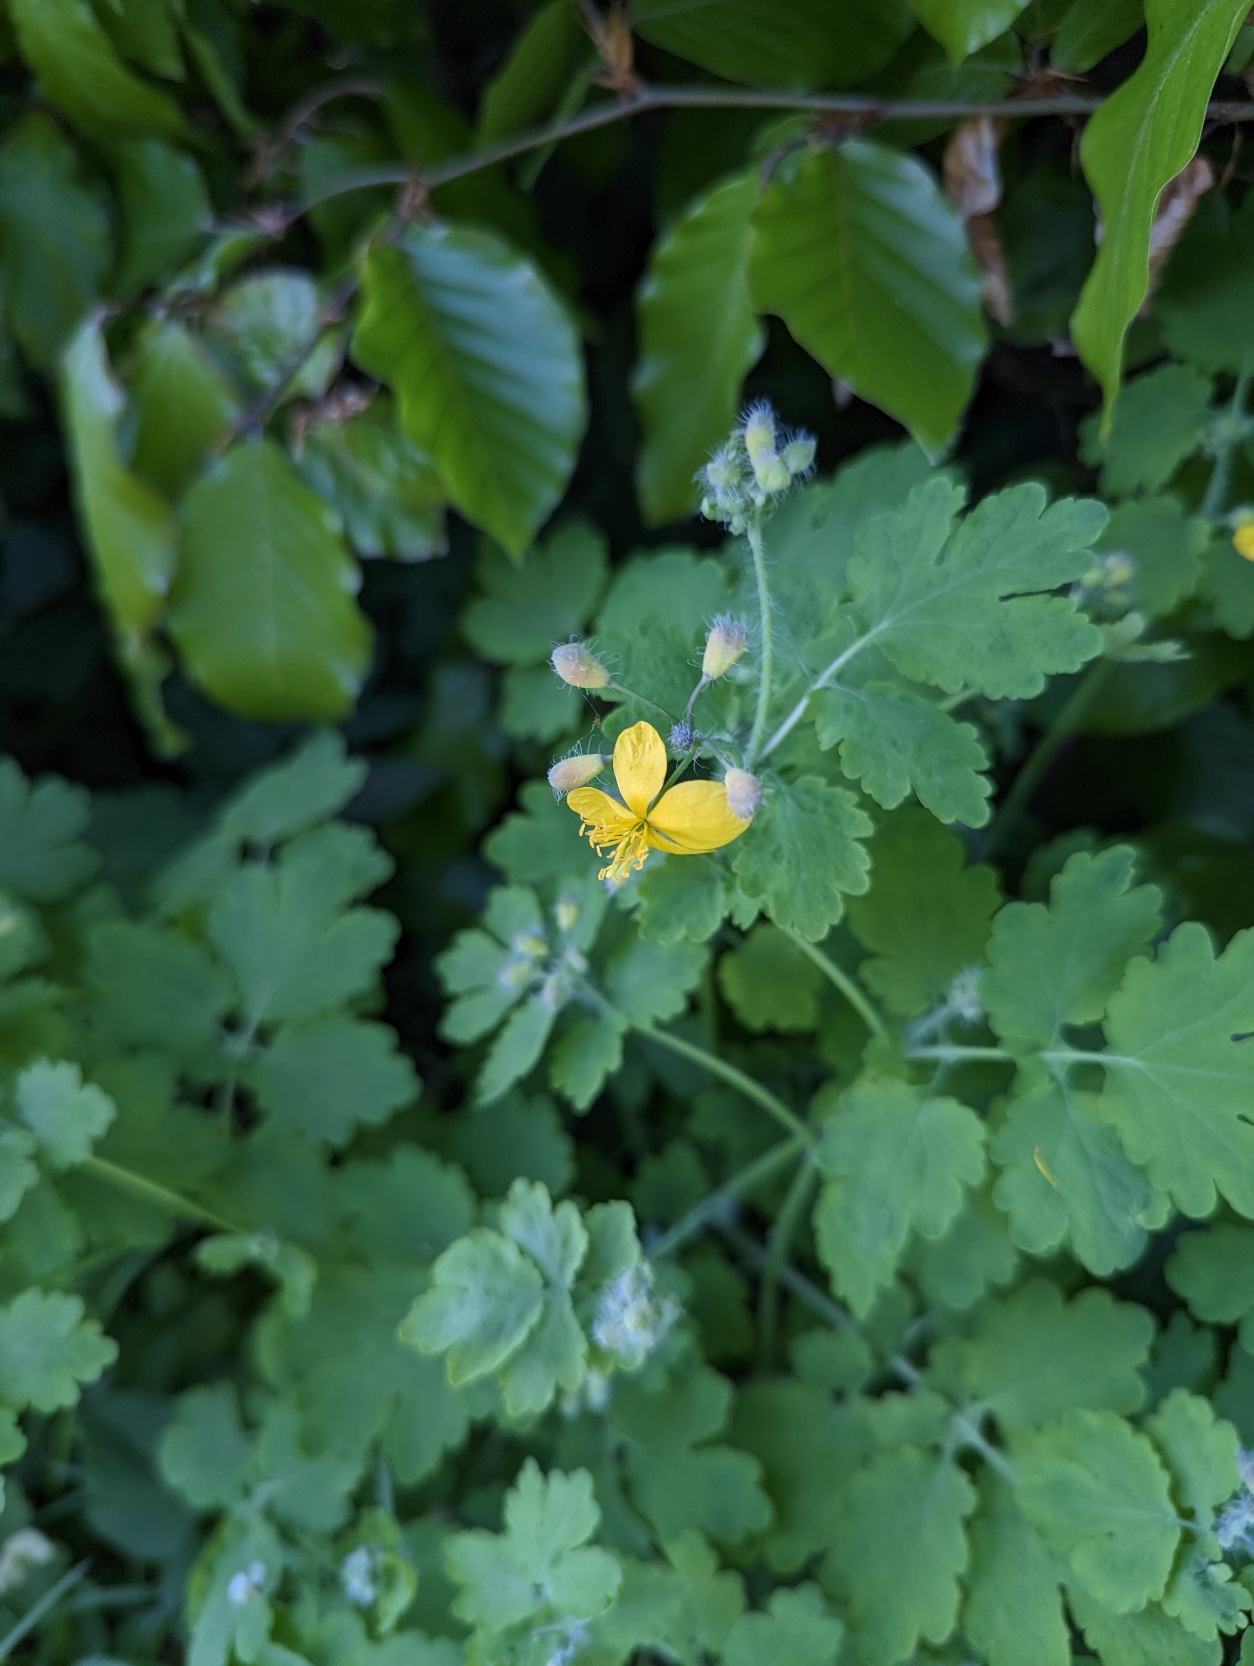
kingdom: Plantae
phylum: Tracheophyta
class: Magnoliopsida
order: Ranunculales
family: Papaveraceae
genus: Chelidonium
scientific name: Chelidonium majus
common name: Svaleurt
